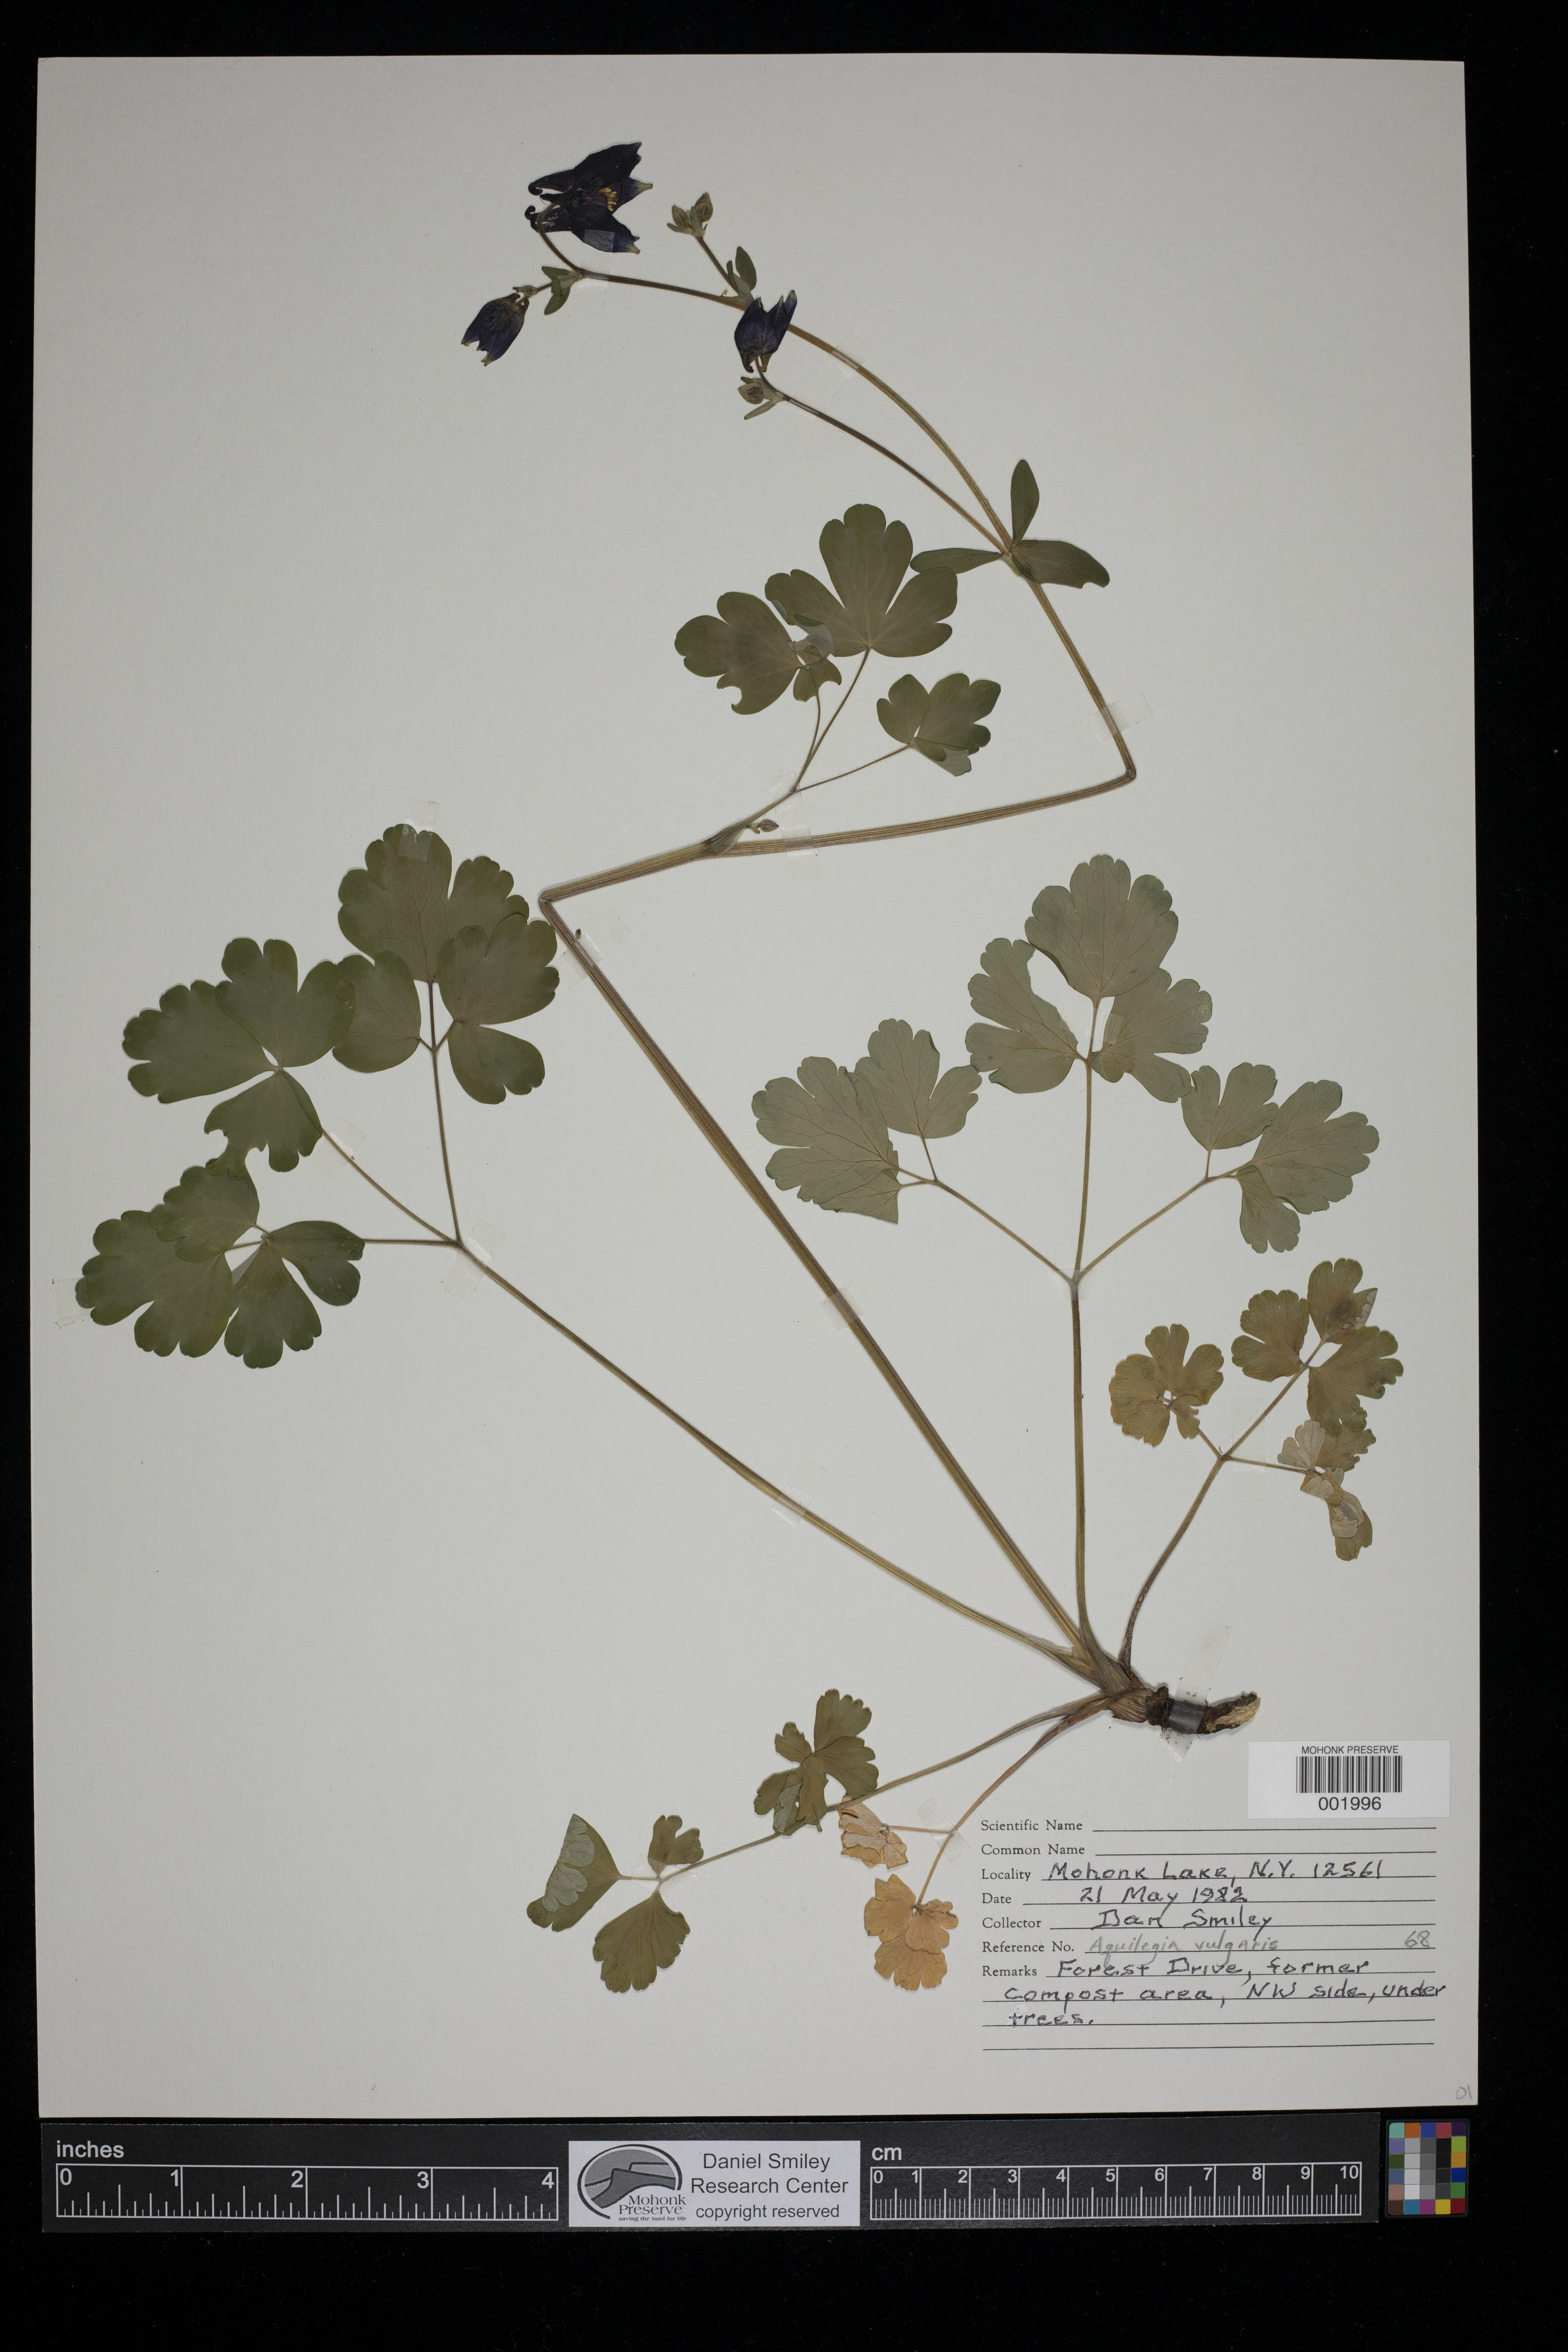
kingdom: Plantae
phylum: Tracheophyta
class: Magnoliopsida
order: Ranunculales
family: Ranunculaceae
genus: Aquilegia
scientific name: Aquilegia vulgaris
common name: Columbine
